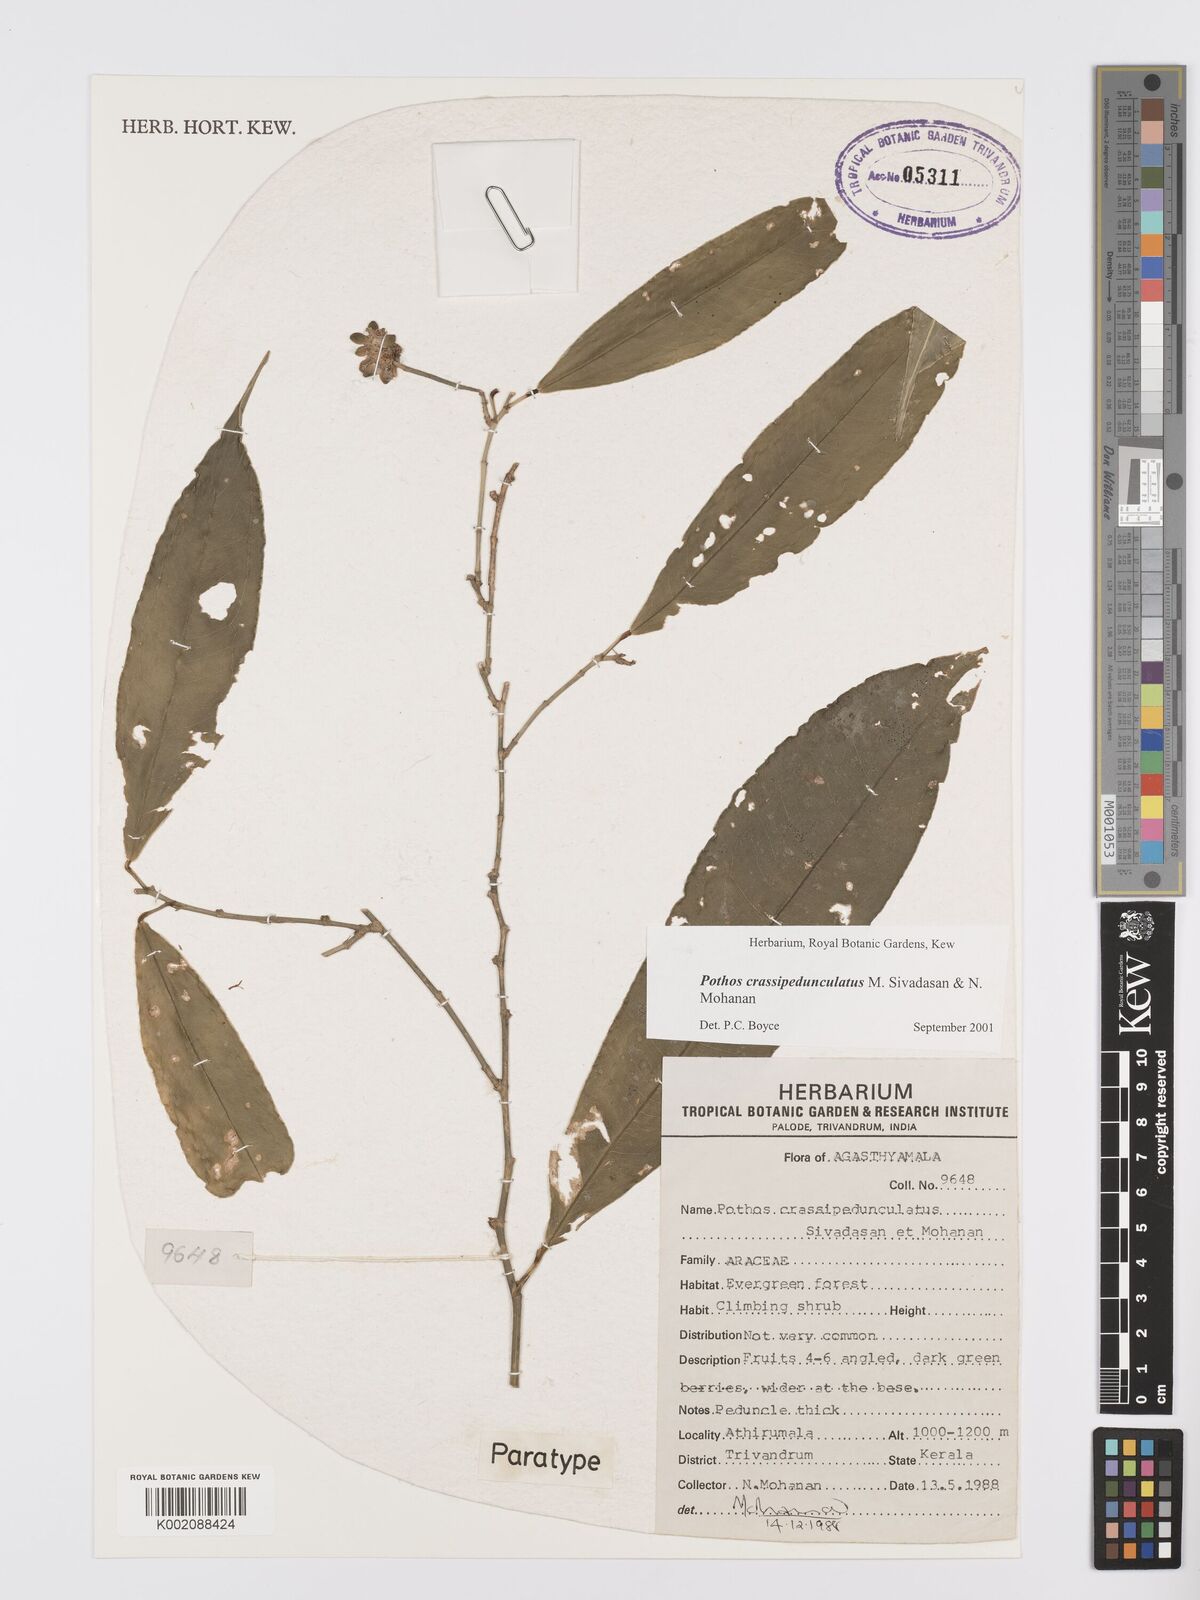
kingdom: Plantae
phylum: Tracheophyta
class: Liliopsida
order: Alismatales
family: Araceae
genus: Pothos
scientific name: Pothos crassipedunculatus
